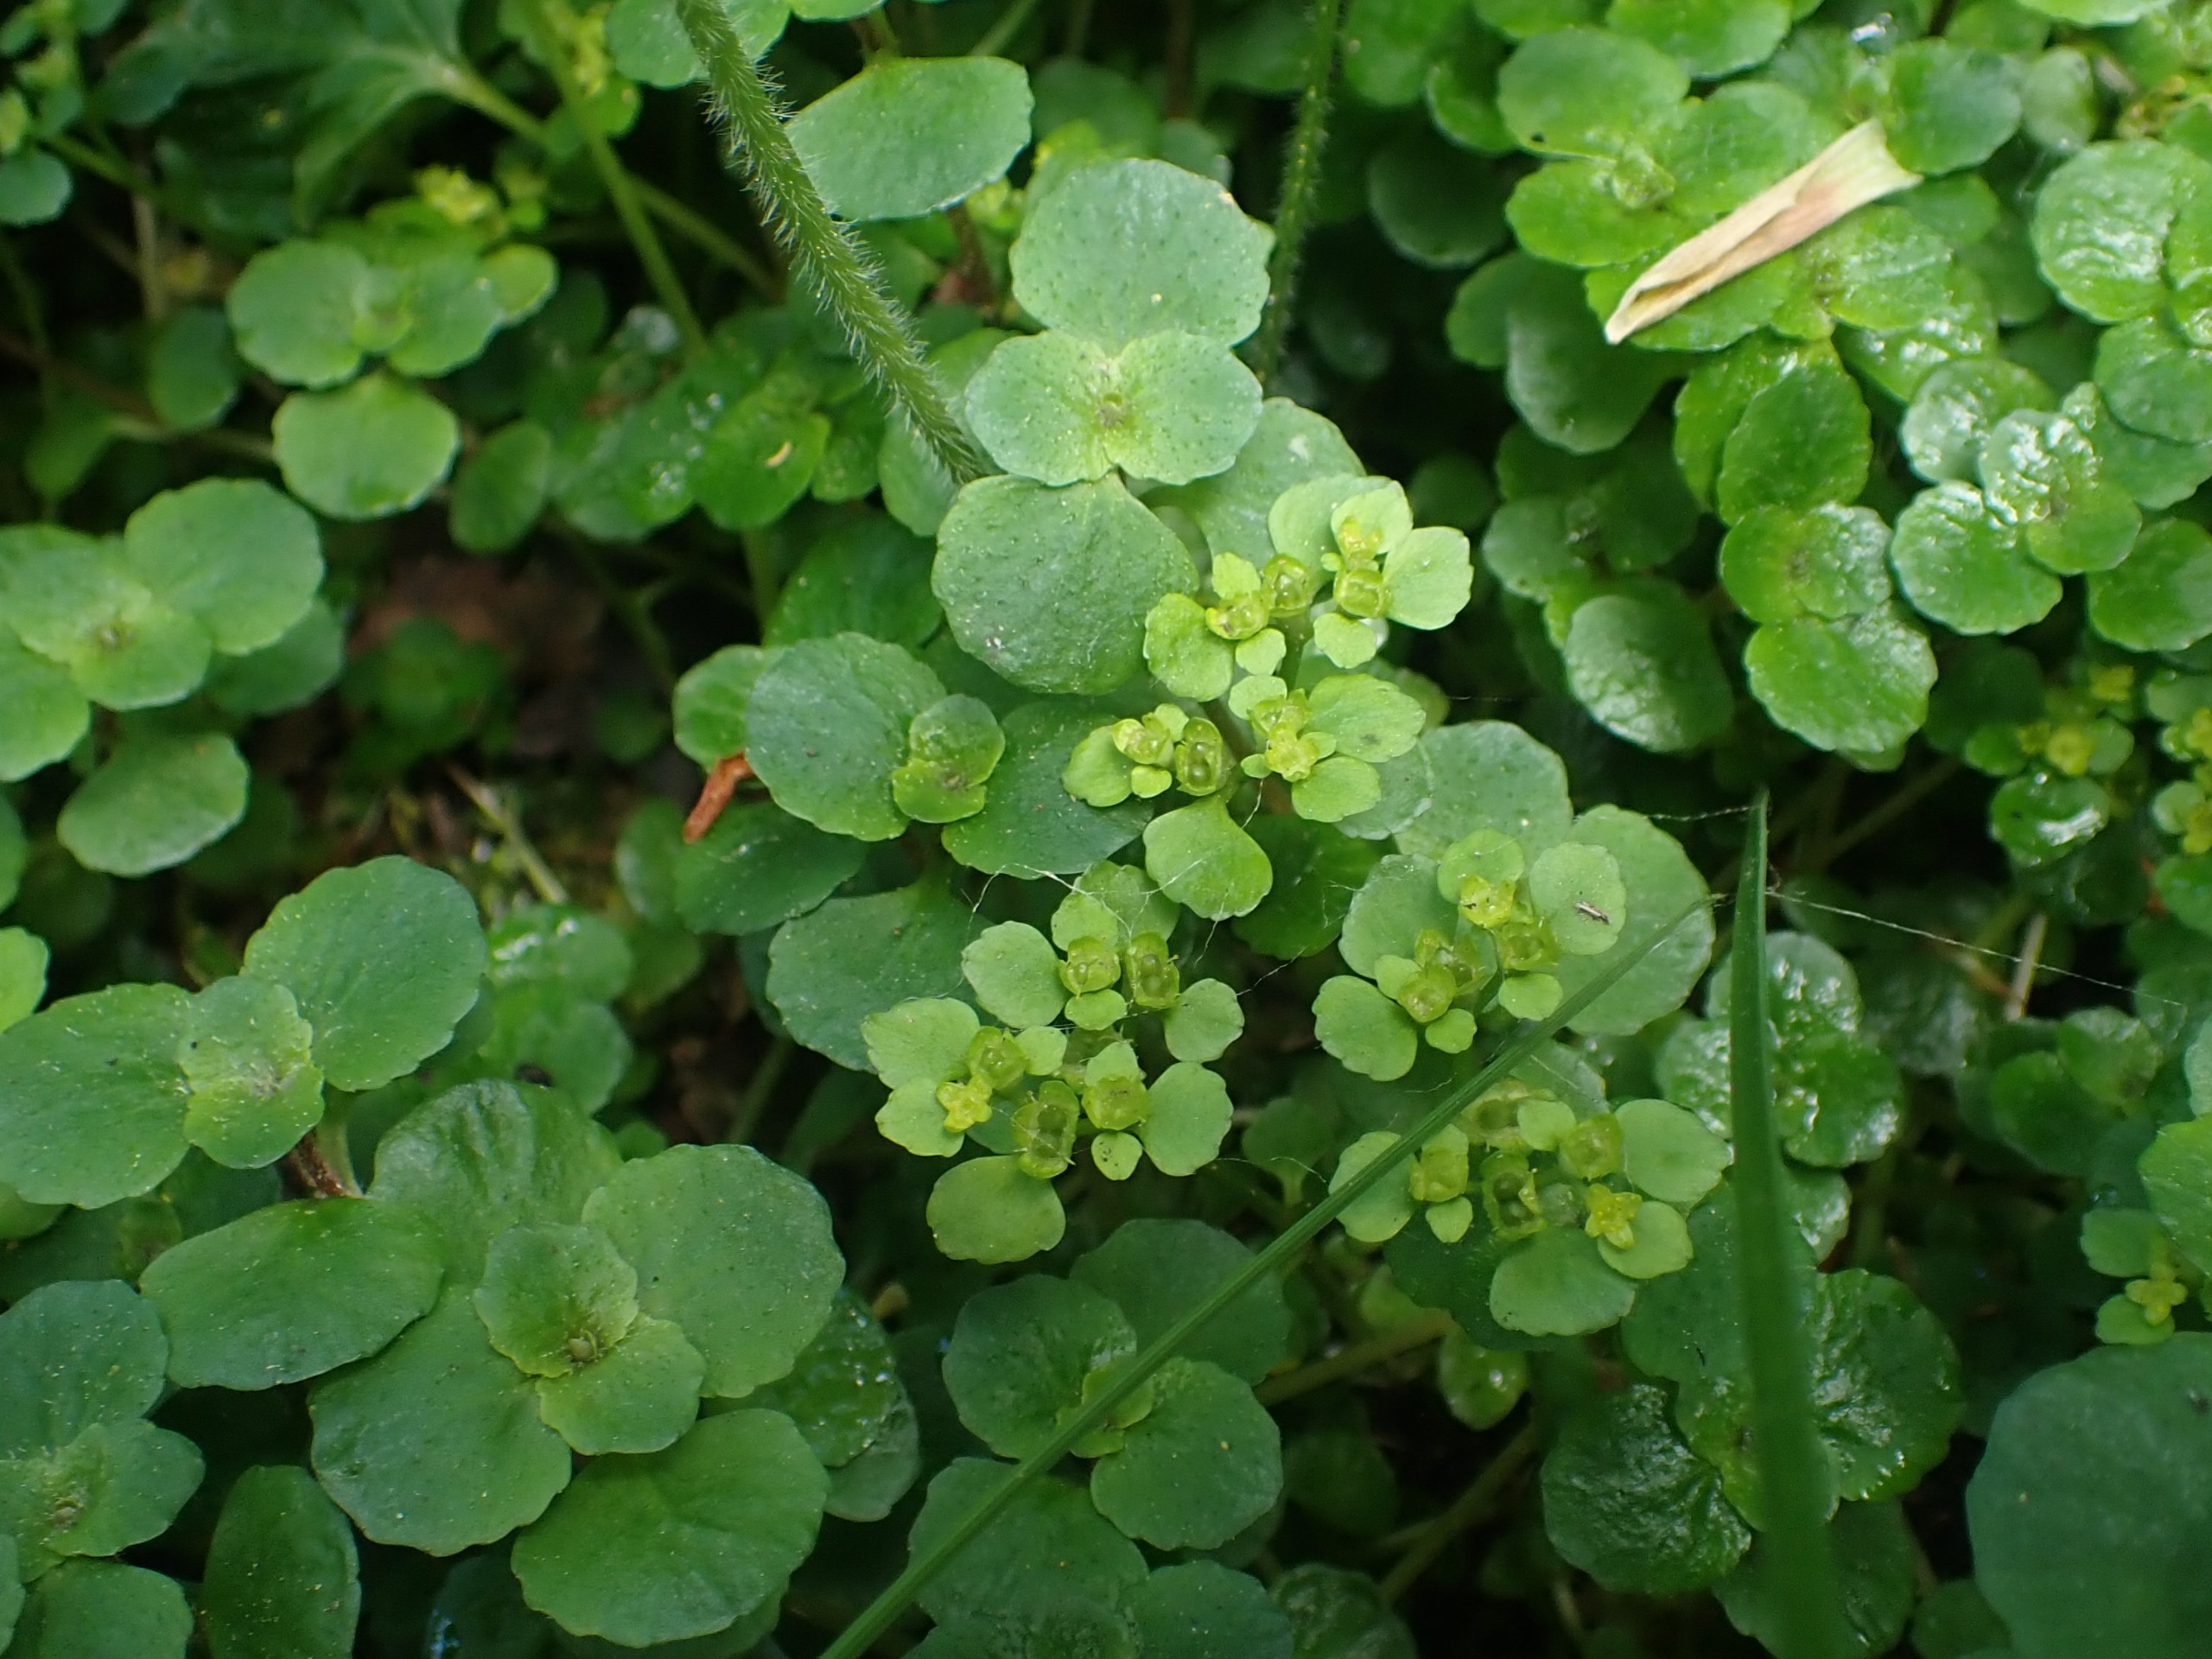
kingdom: Plantae
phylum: Tracheophyta
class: Magnoliopsida
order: Saxifragales
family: Saxifragaceae
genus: Chrysosplenium
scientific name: Chrysosplenium oppositifolium
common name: Småbladet milturt
